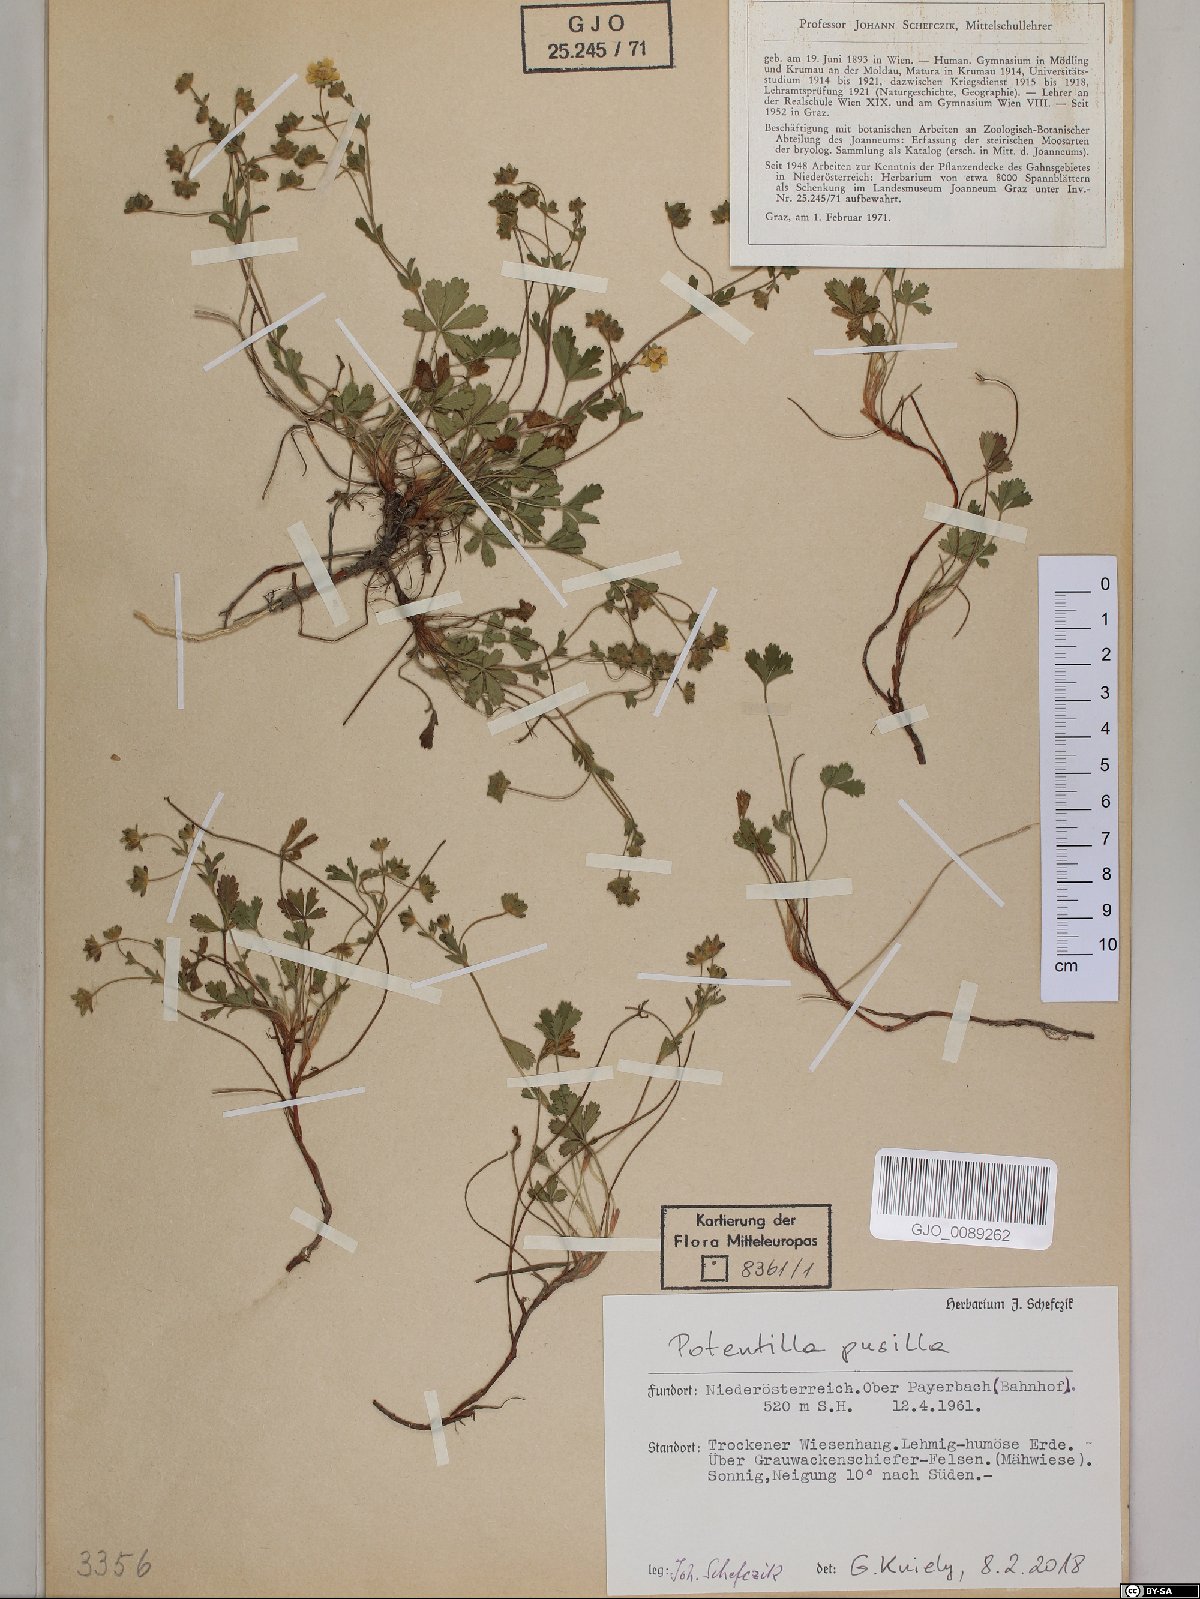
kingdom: Plantae
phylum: Tracheophyta
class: Magnoliopsida
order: Rosales
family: Rosaceae
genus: Potentilla
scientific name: Potentilla pusilla
